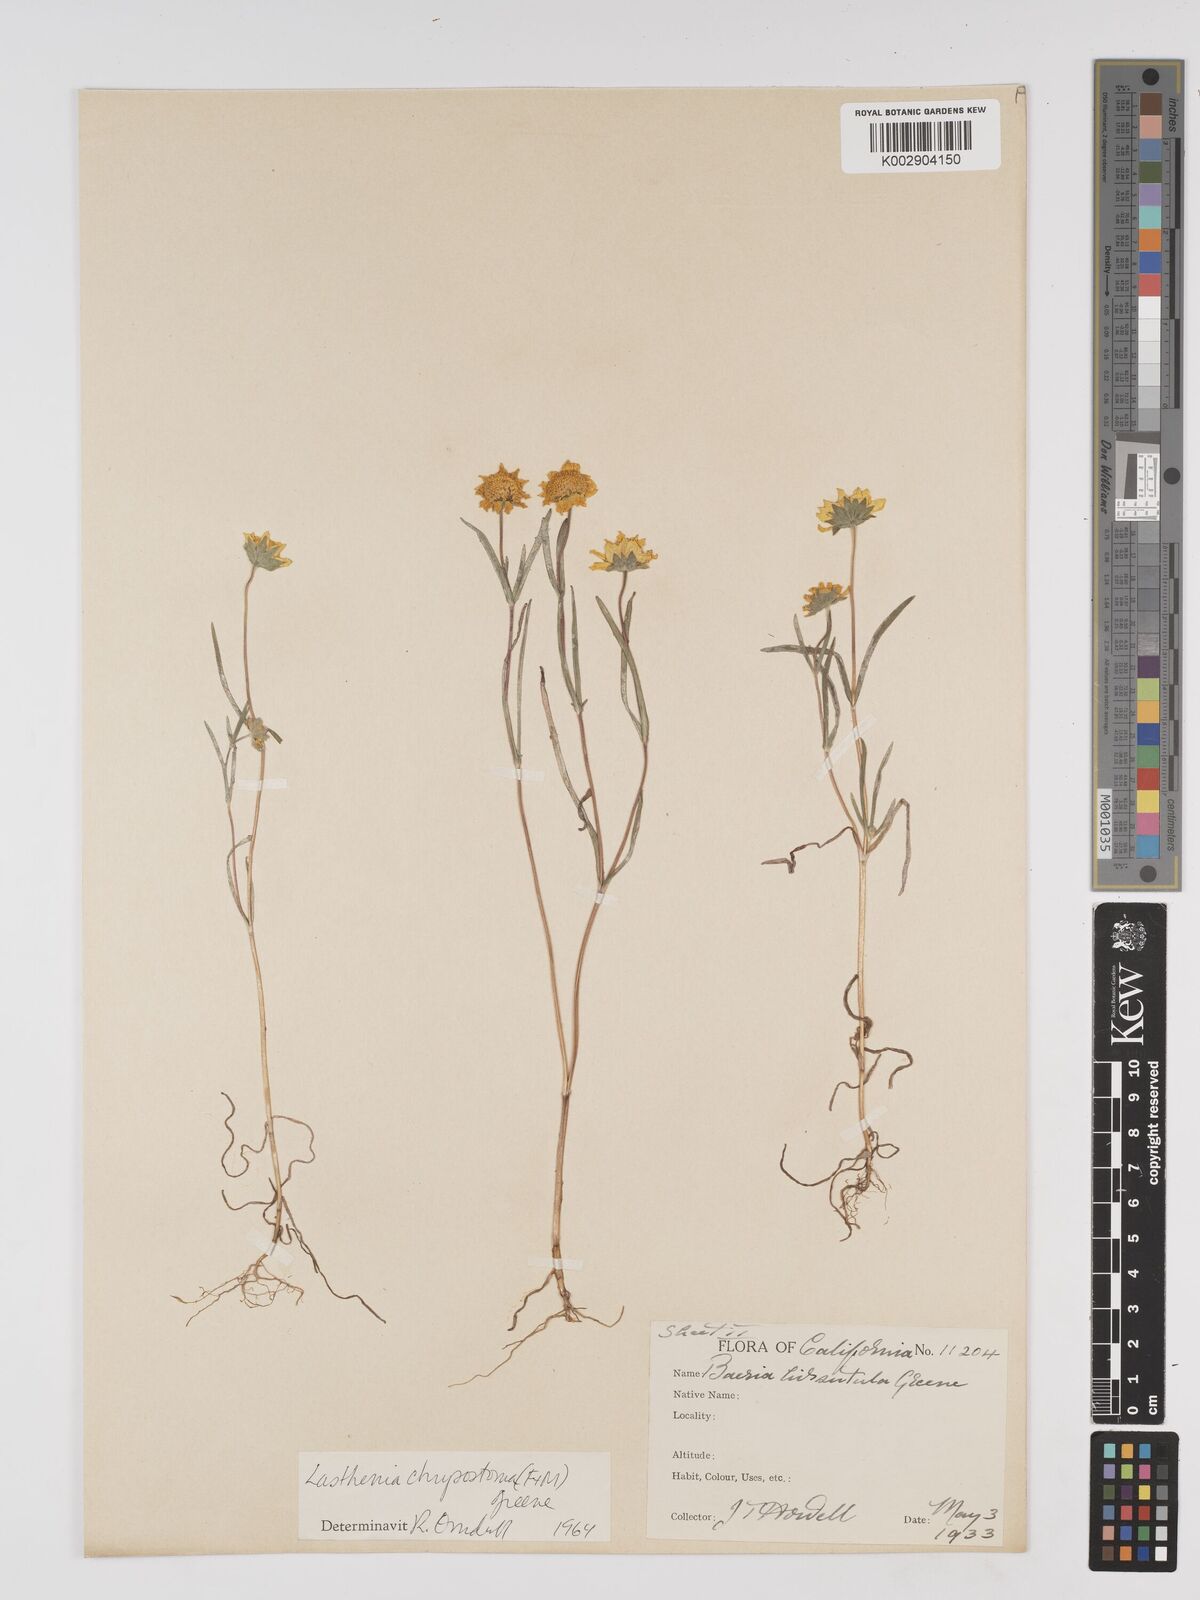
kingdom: Plantae
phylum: Tracheophyta
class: Magnoliopsida
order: Asterales
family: Asteraceae
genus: Lasthenia
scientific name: Lasthenia californica
